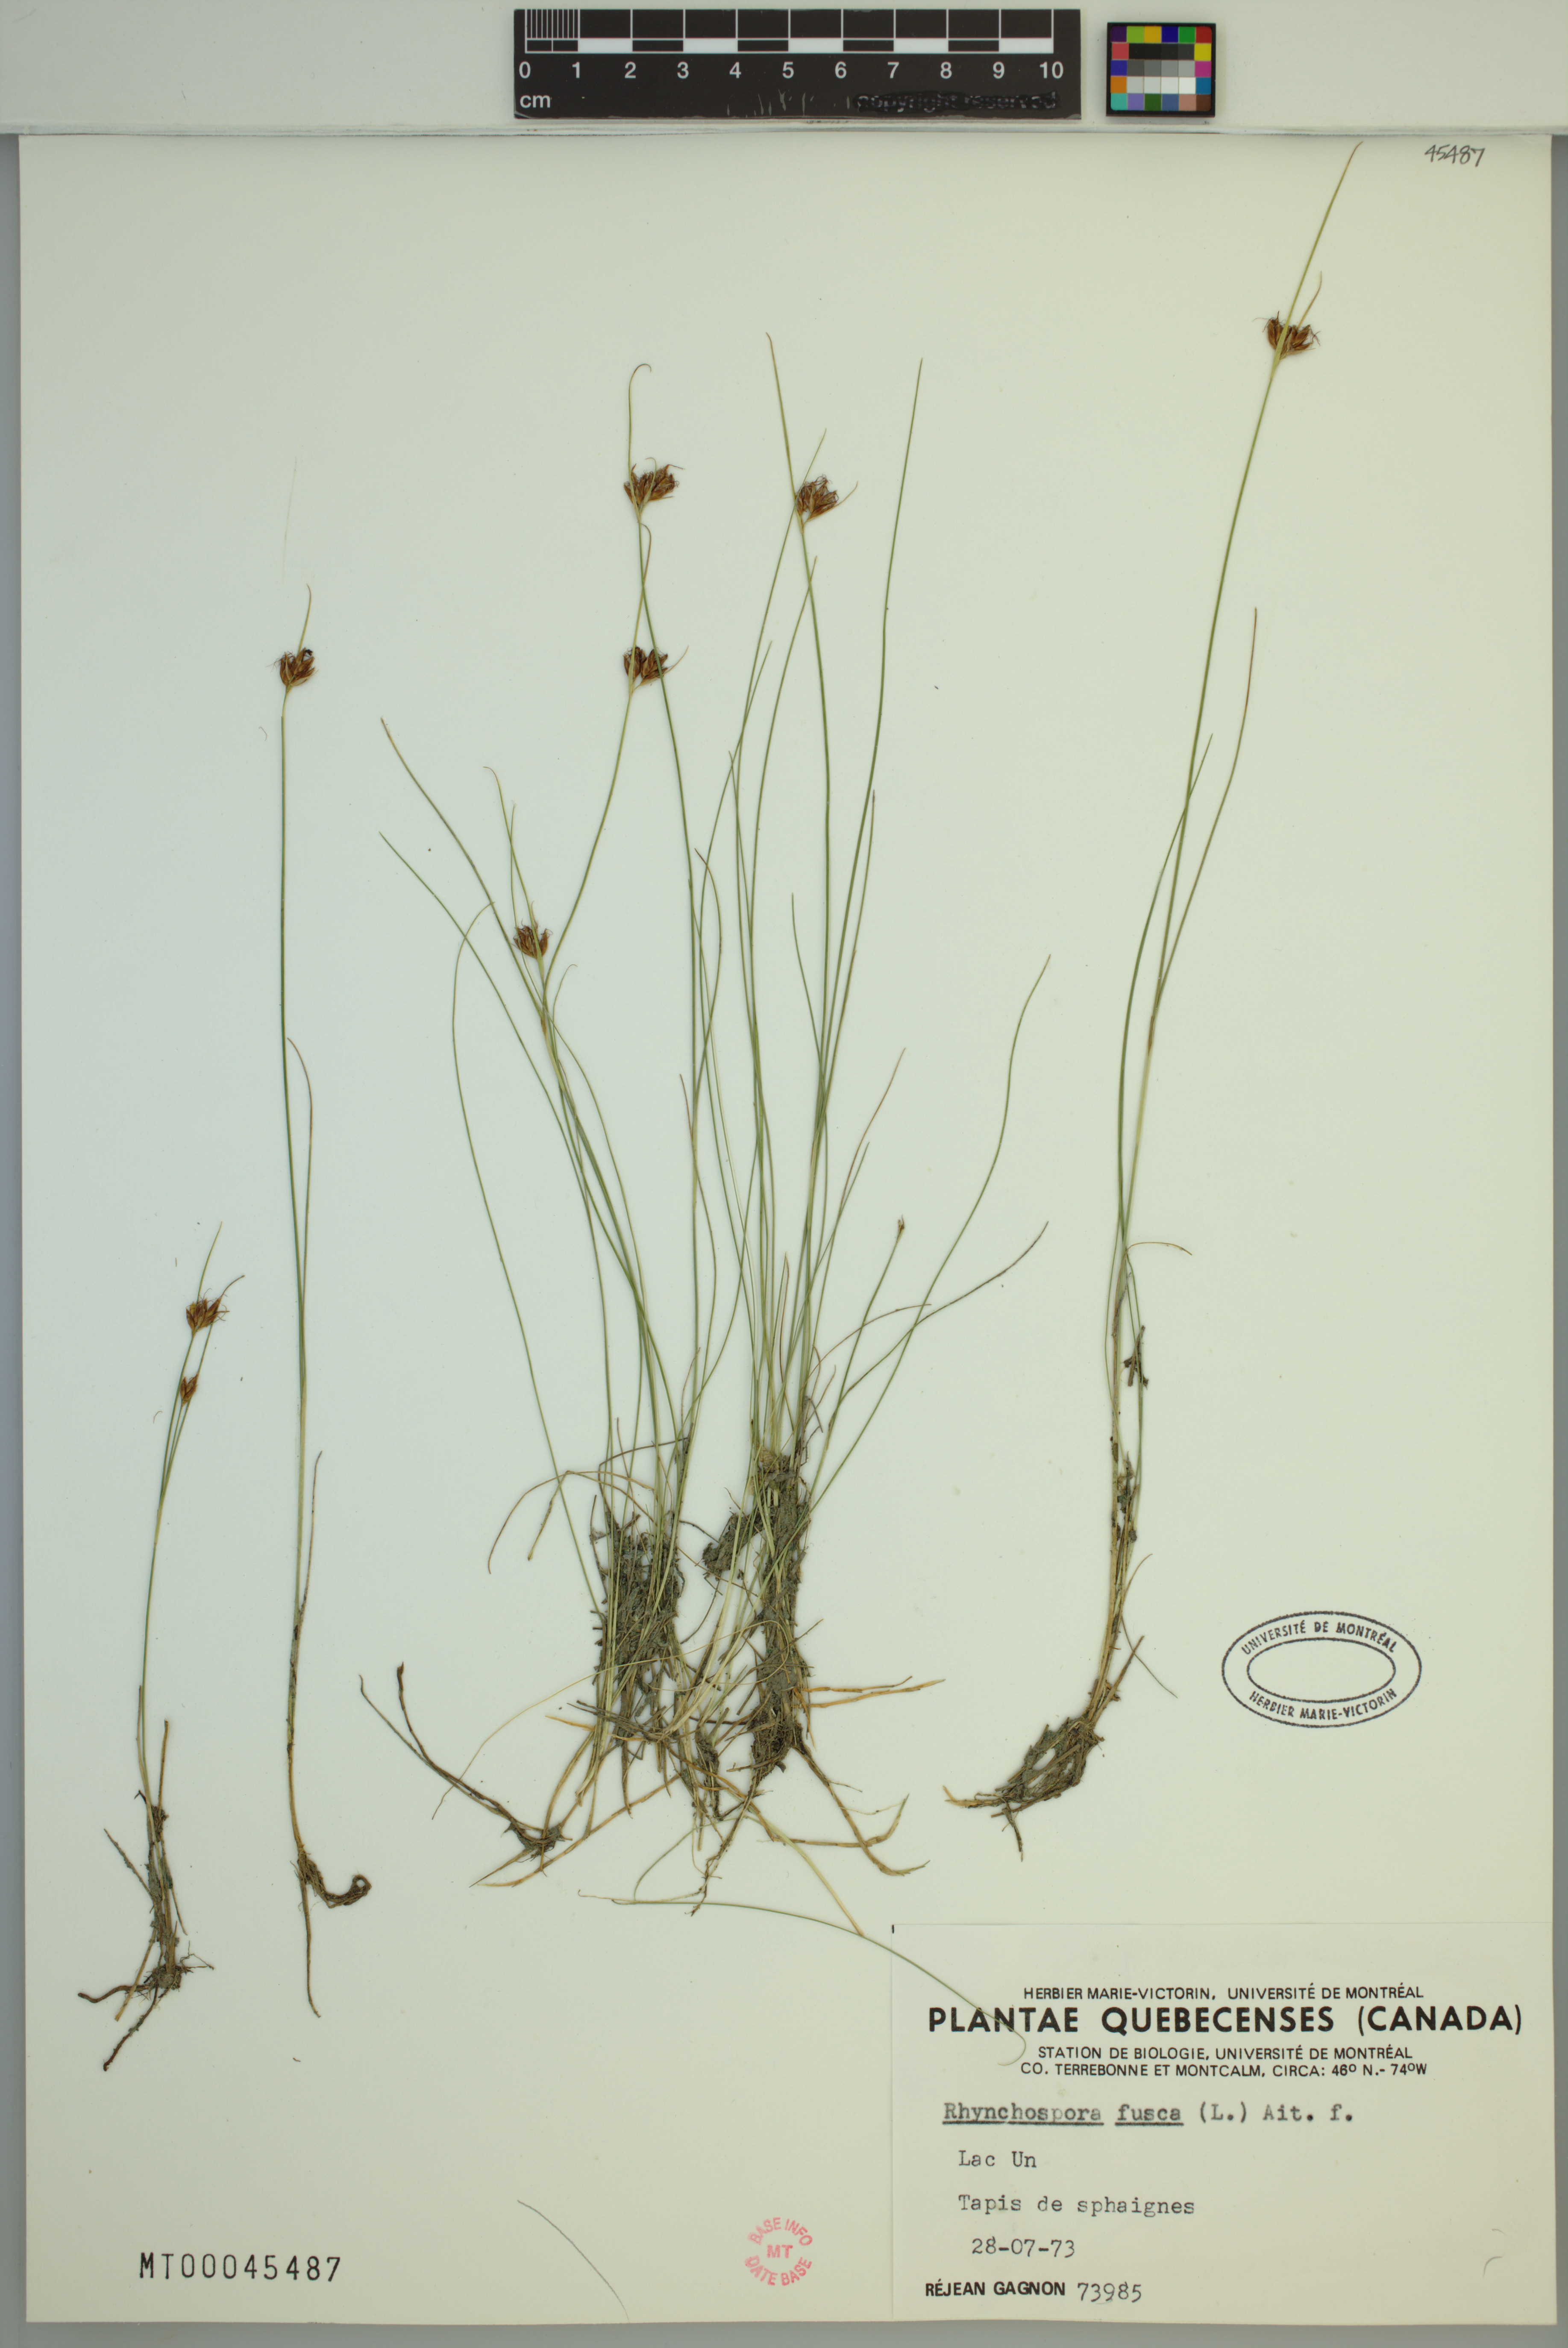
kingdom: Plantae
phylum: Tracheophyta
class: Liliopsida
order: Poales
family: Cyperaceae
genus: Rhynchospora
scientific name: Rhynchospora fusca
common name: Brown beak-sedge
